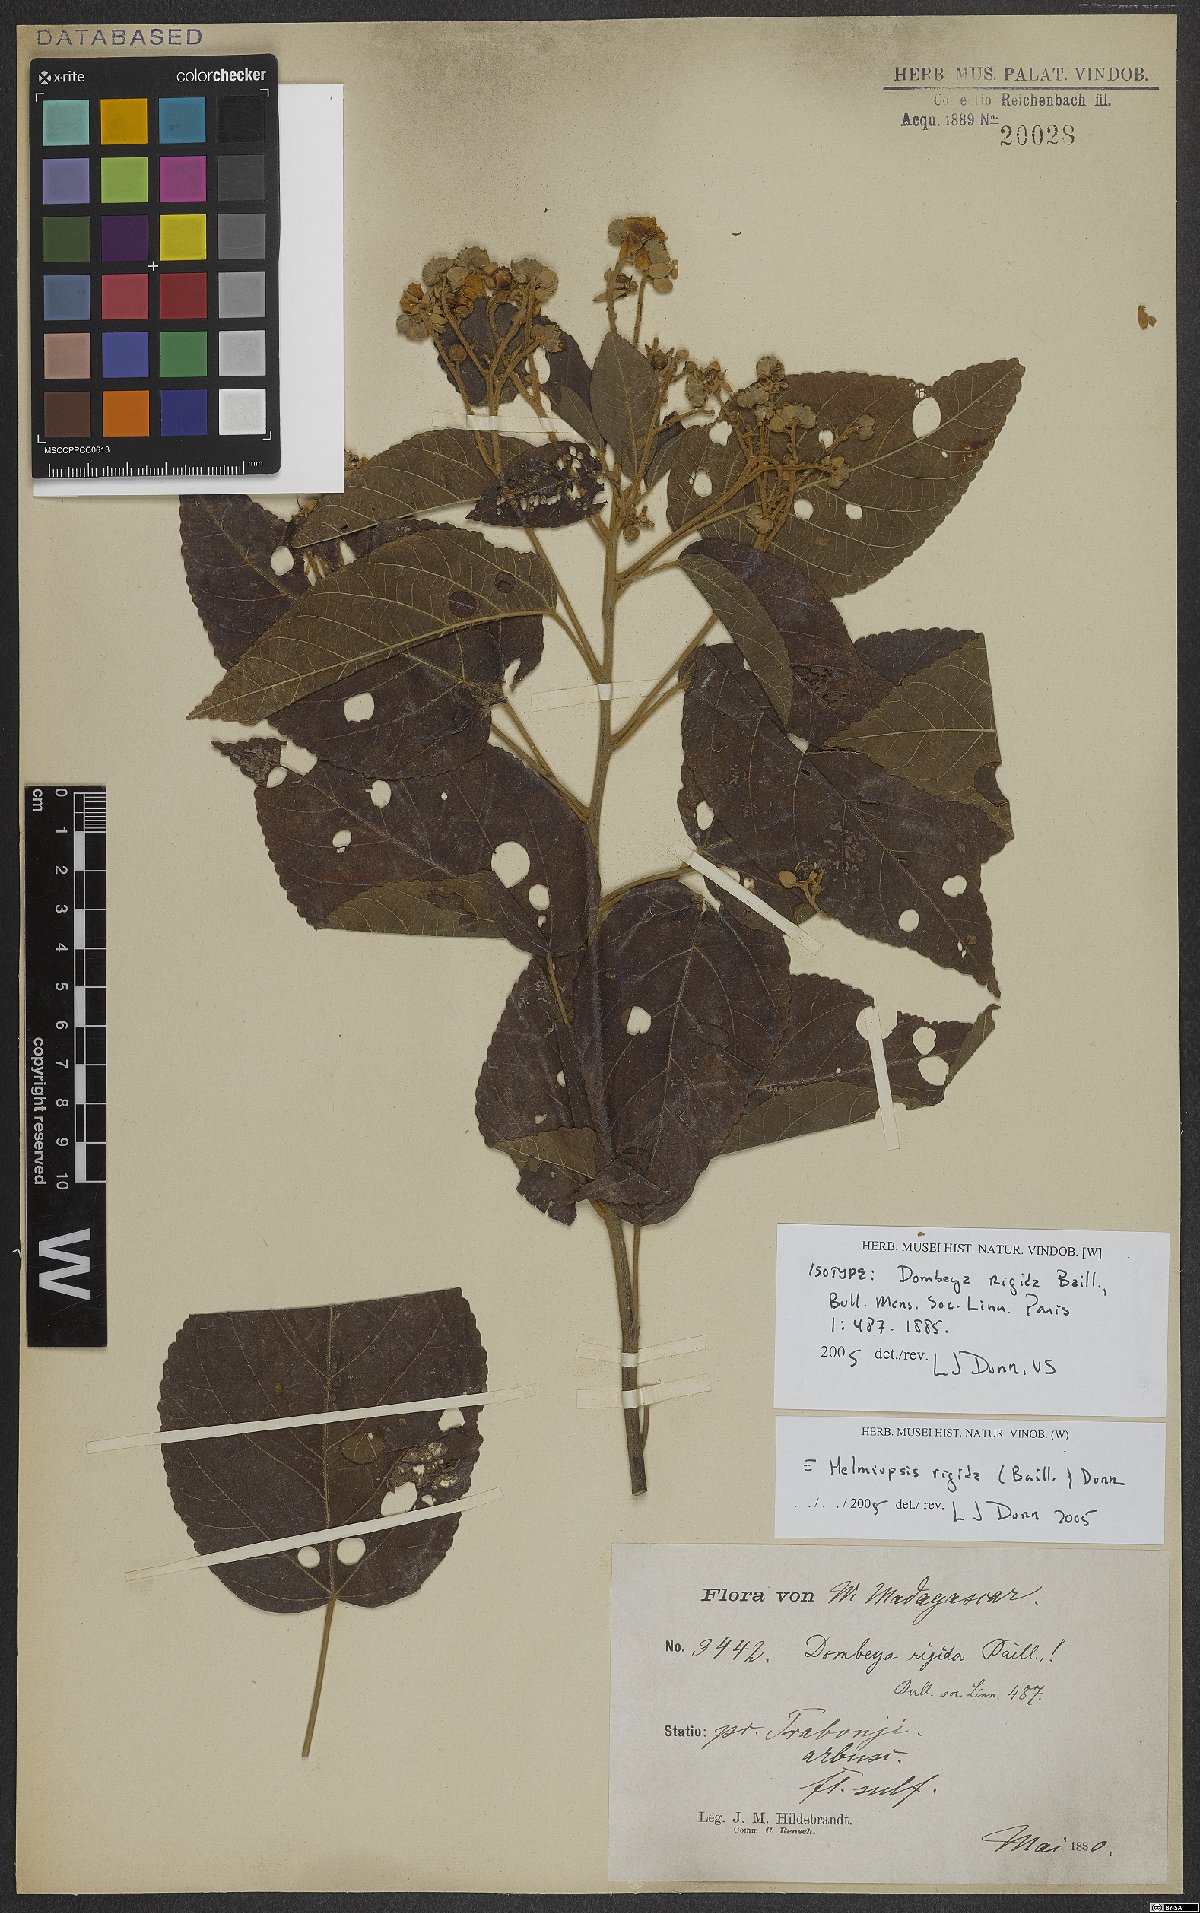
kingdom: Plantae
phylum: Tracheophyta
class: Magnoliopsida
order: Malvales
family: Malvaceae
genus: Eriolaena
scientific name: Eriolaena rigida
